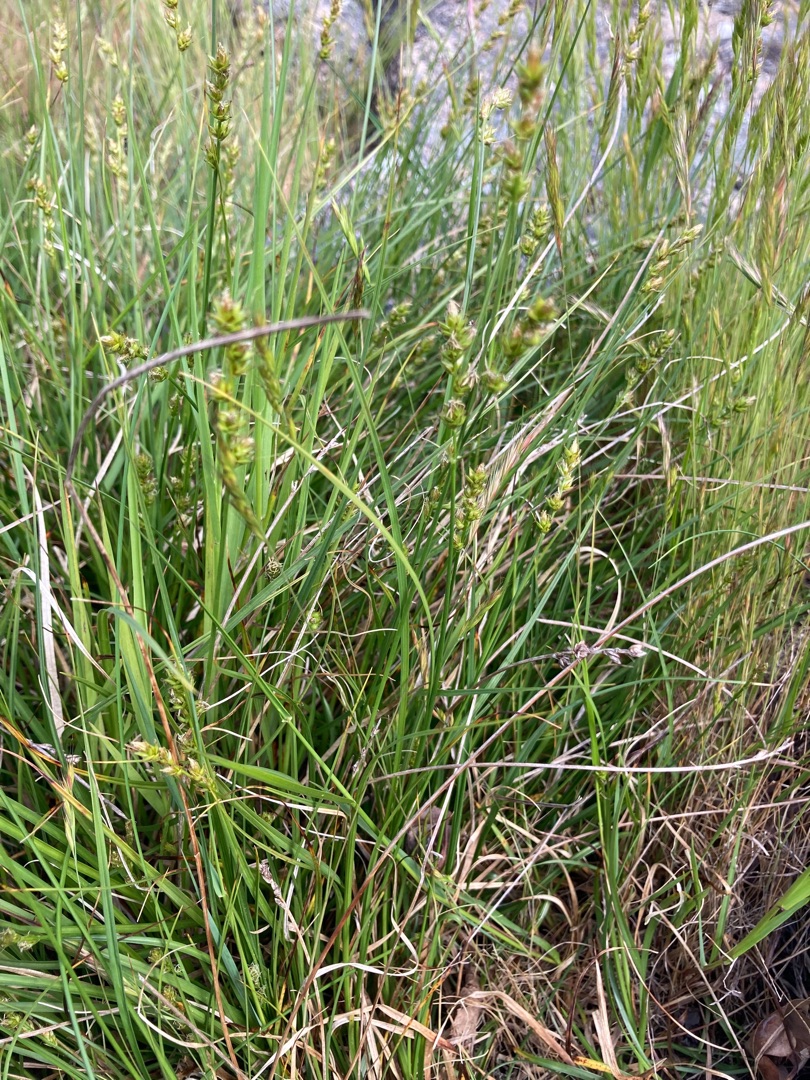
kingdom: Plantae
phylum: Tracheophyta
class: Liliopsida
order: Poales
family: Cyperaceae
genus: Carex
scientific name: Carex pairae
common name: Pigget star
